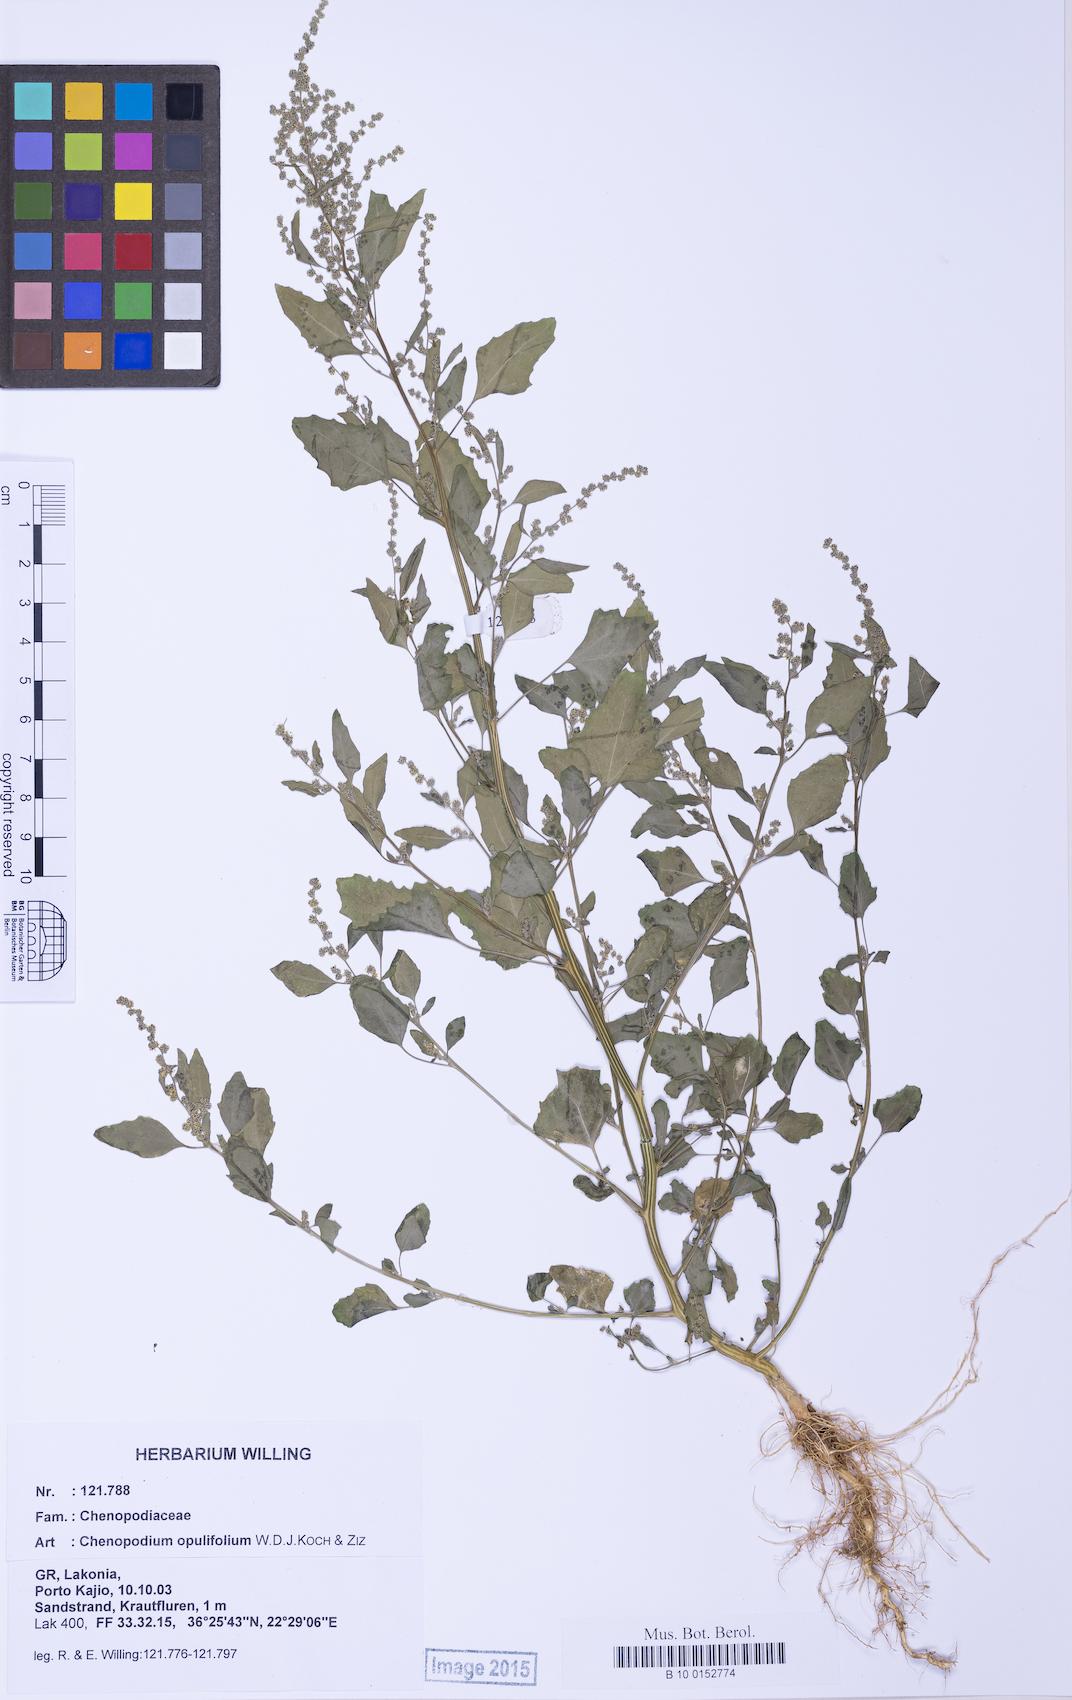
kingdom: Plantae
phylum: Tracheophyta
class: Magnoliopsida
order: Caryophyllales
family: Amaranthaceae
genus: Chenopodium
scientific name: Chenopodium album
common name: Fat-hen
